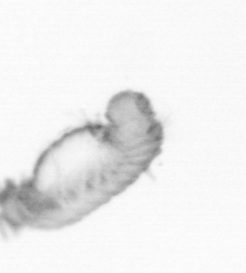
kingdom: Animalia
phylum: Annelida
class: Polychaeta
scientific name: Polychaeta
